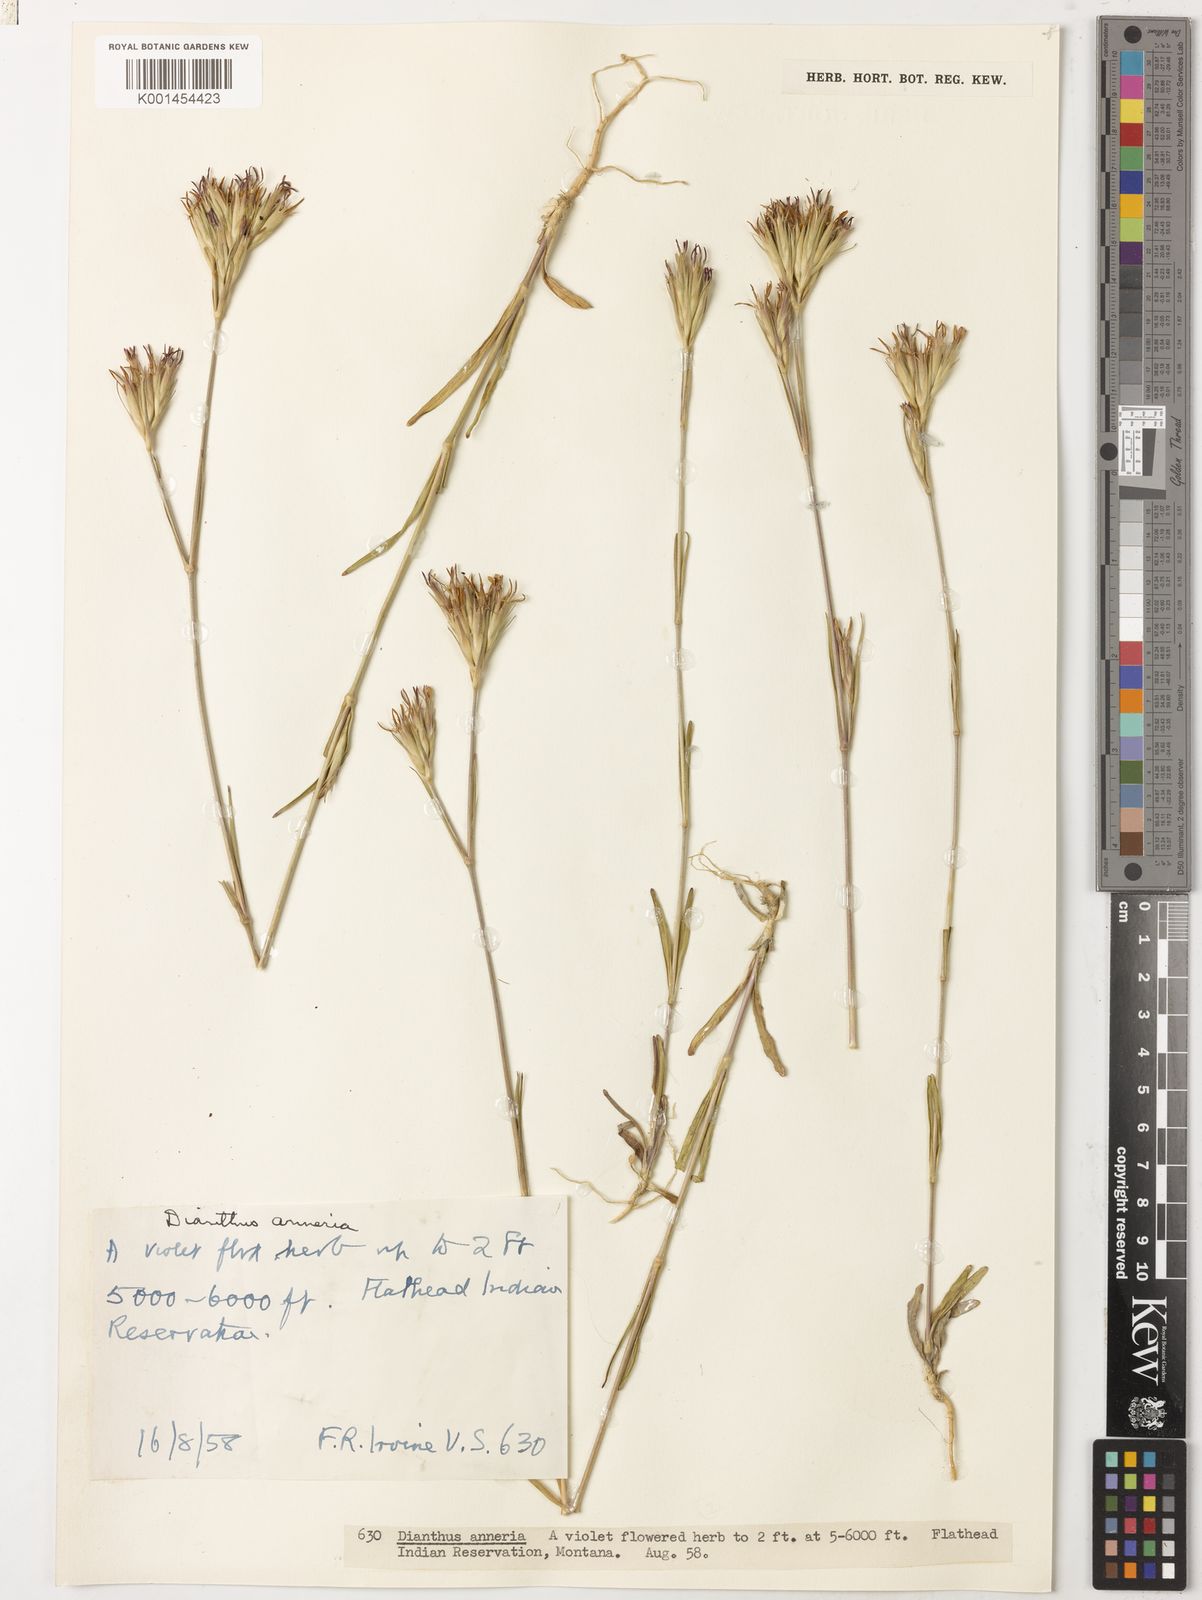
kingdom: Plantae
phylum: Tracheophyta
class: Magnoliopsida
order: Caryophyllales
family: Caryophyllaceae
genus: Dianthus
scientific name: Dianthus armeria
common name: Deptford pink
